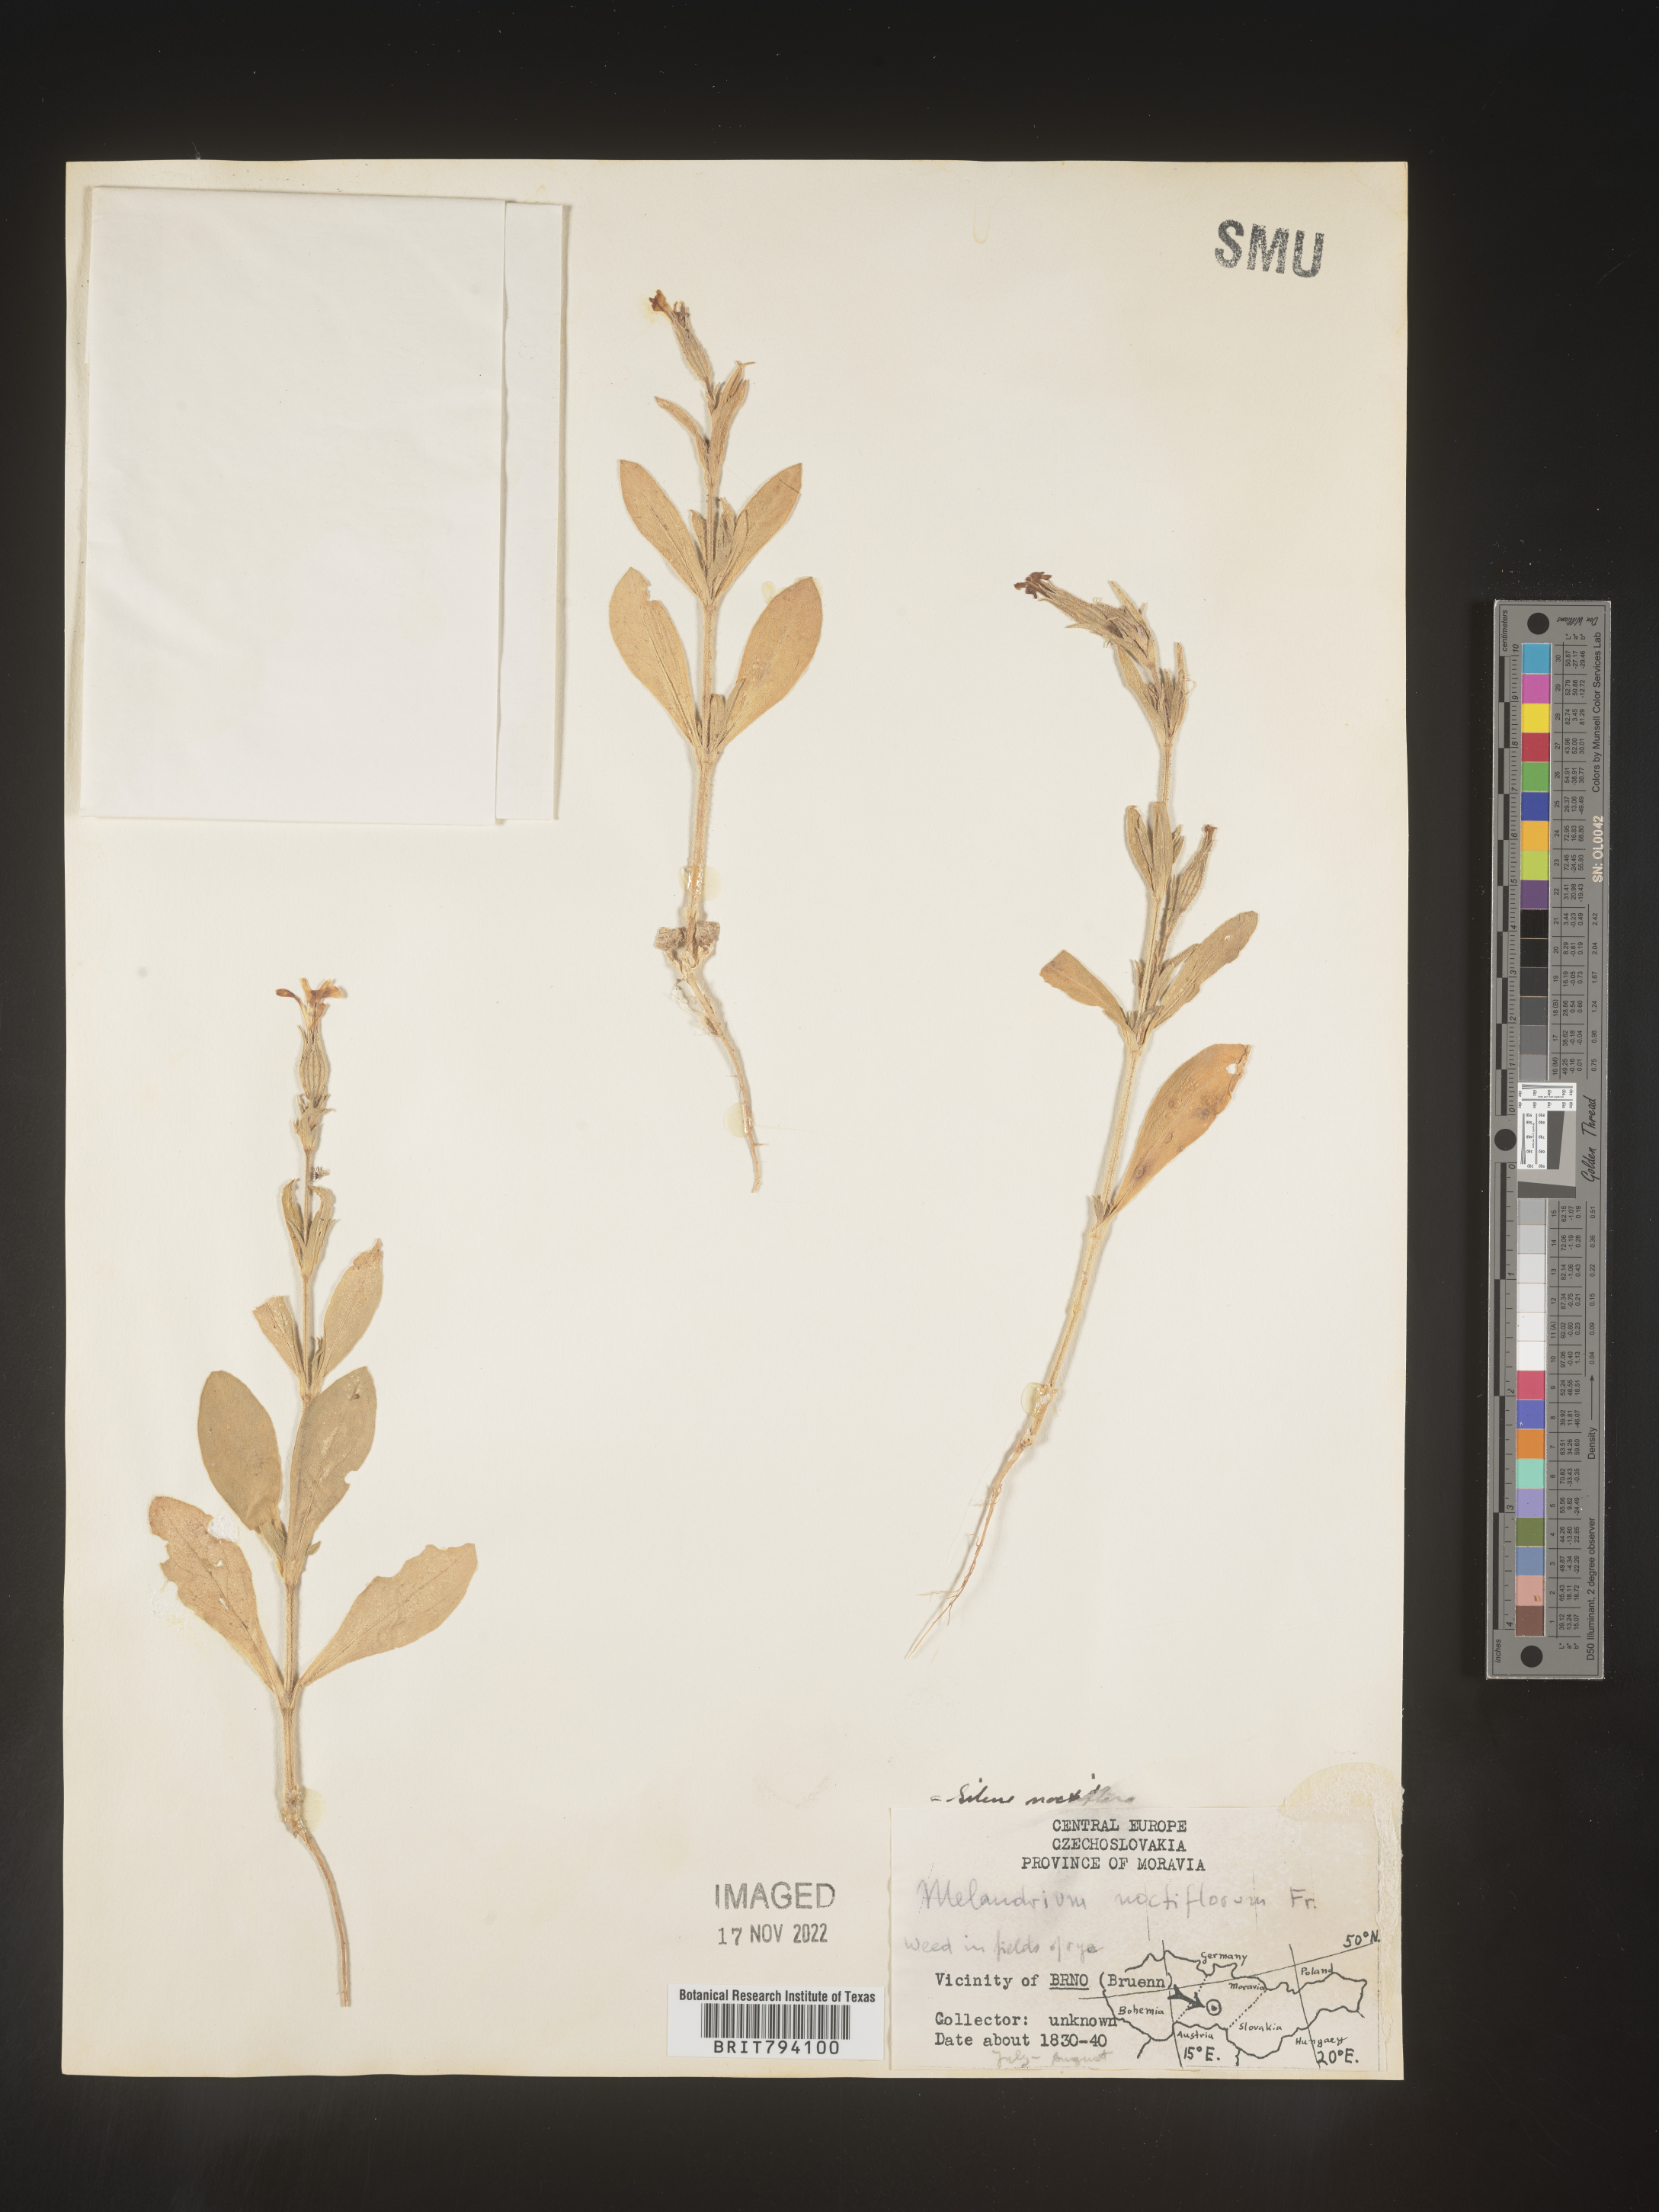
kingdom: Plantae
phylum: Tracheophyta
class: Magnoliopsida
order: Caryophyllales
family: Caryophyllaceae
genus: Silene
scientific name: Silene noctiflora
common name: Night-flowering catchfly
